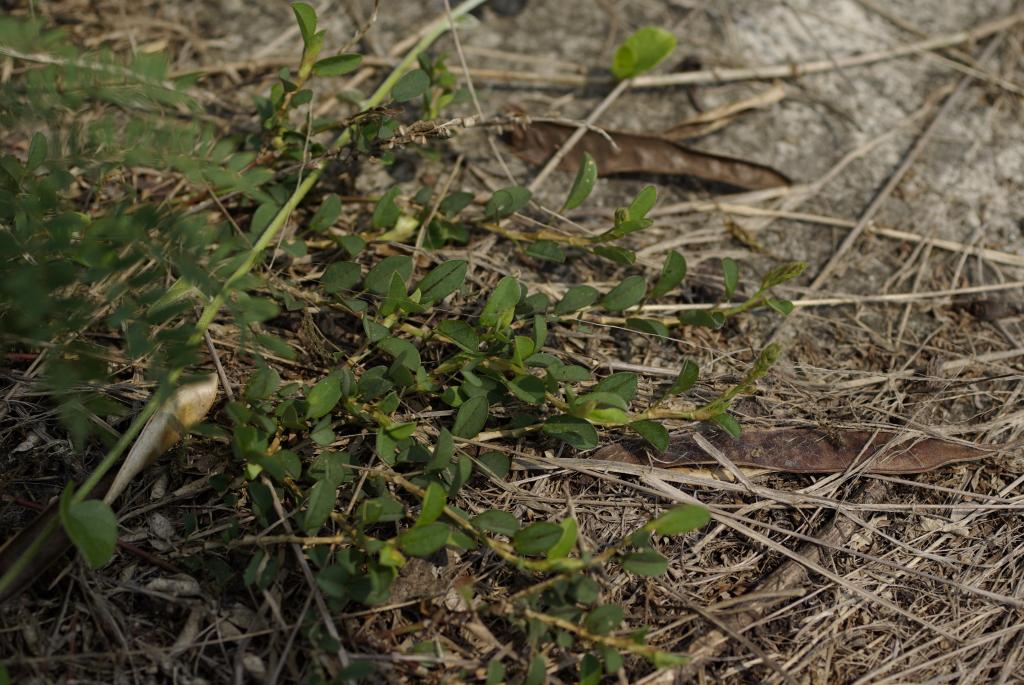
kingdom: Plantae
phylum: Tracheophyta
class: Magnoliopsida
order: Fabales
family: Fabaceae
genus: Alysicarpus
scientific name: Alysicarpus ovalifolius
